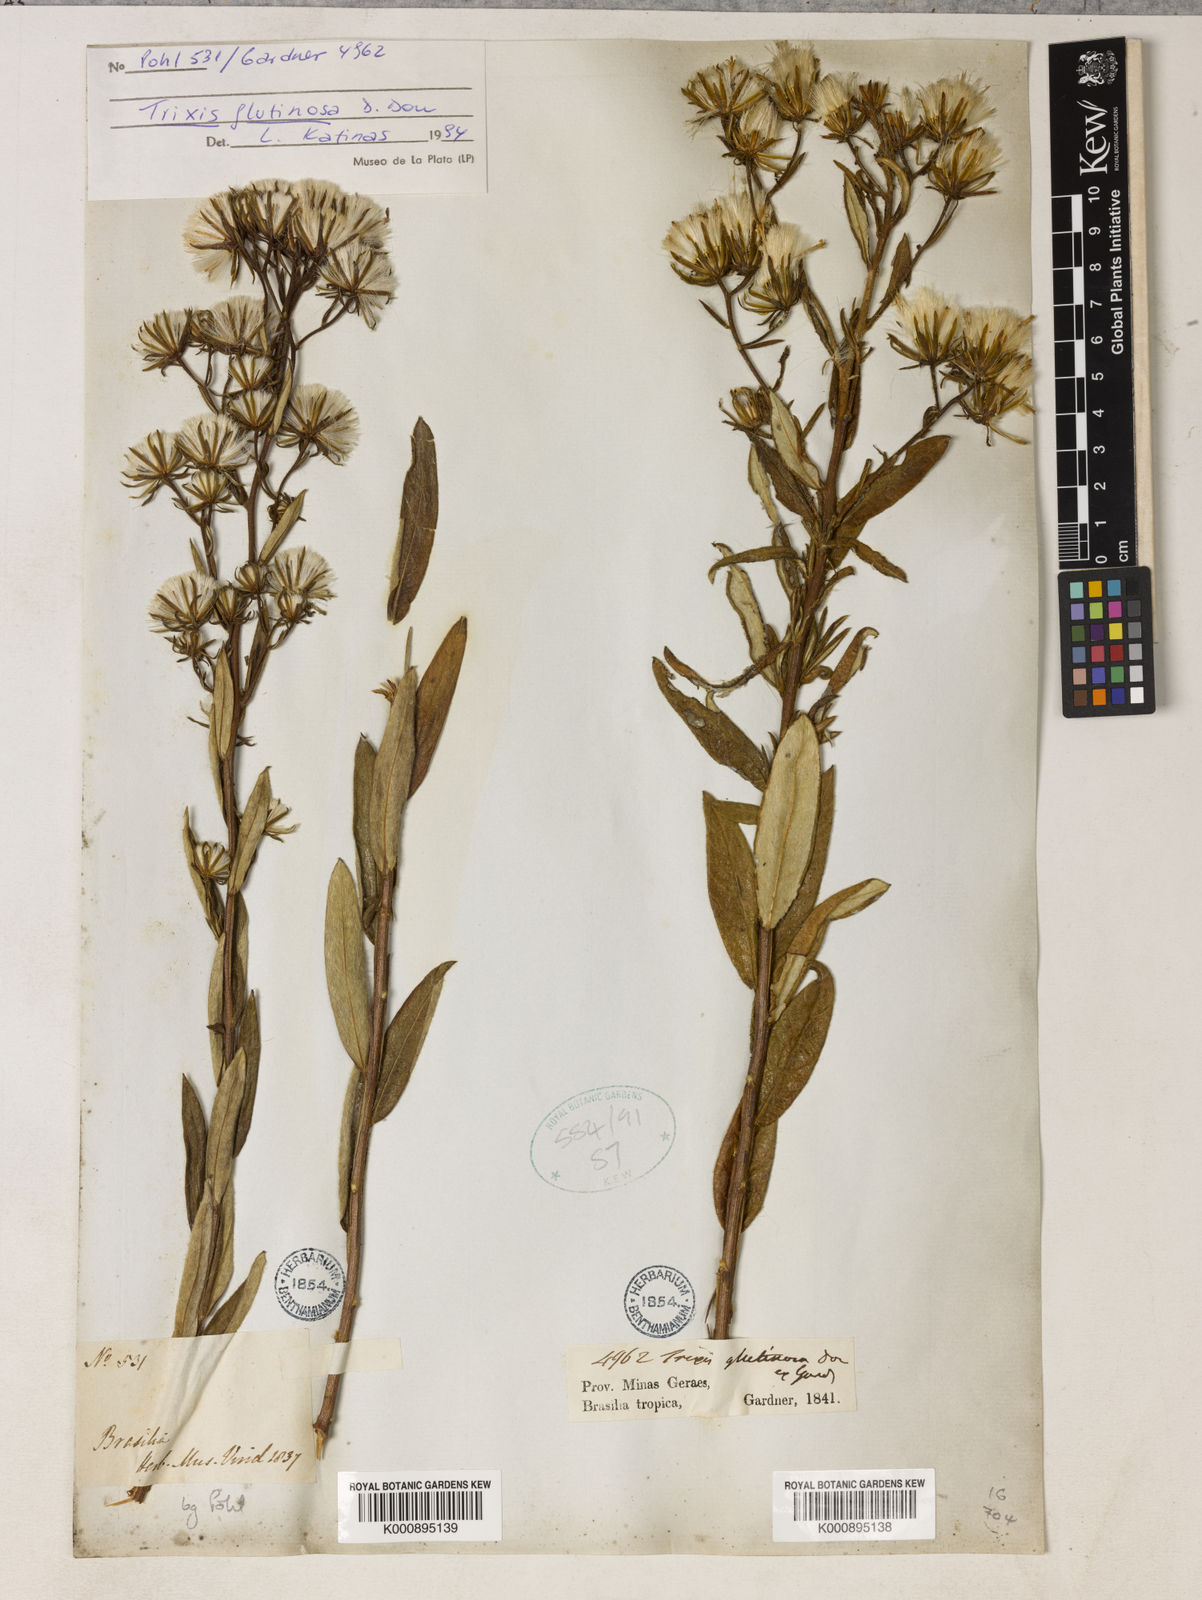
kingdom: Plantae
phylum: Tracheophyta
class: Magnoliopsida
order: Asterales
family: Asteraceae
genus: Trixis
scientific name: Trixis glutinosa
